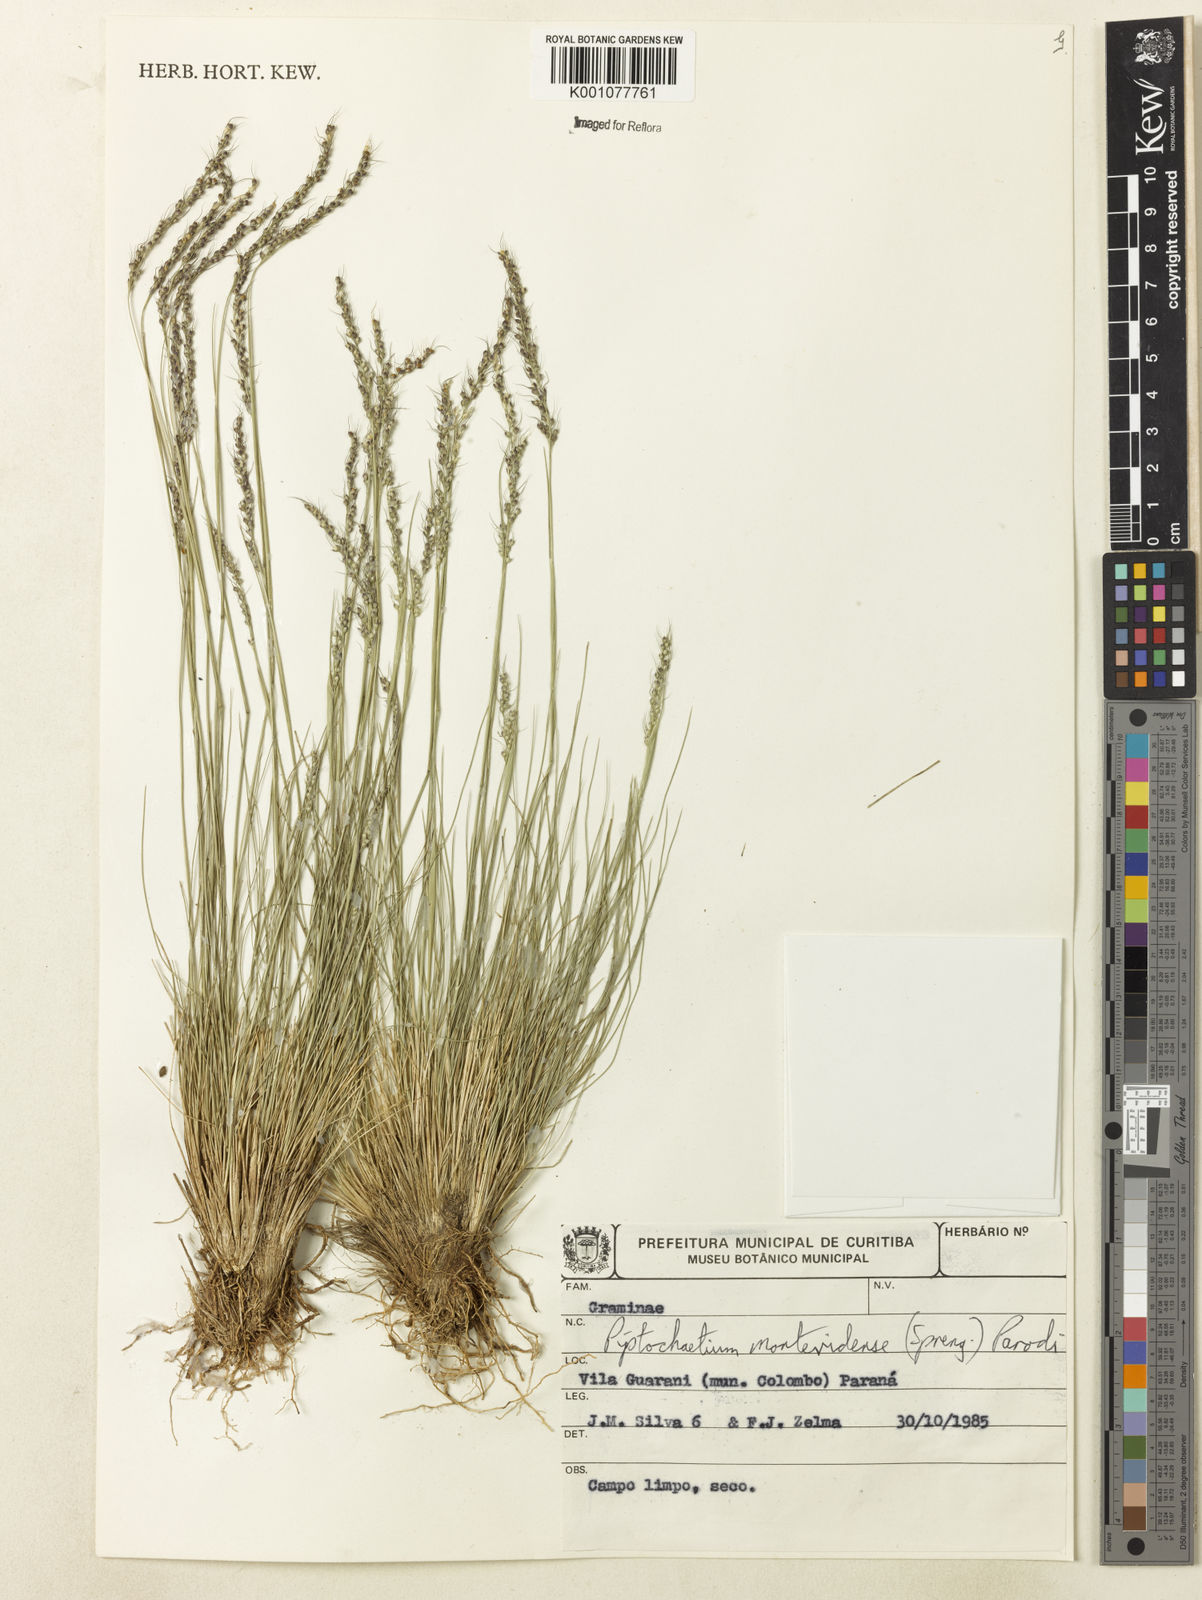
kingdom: Plantae
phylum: Tracheophyta
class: Liliopsida
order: Poales
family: Poaceae
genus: Piptochaetium
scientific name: Piptochaetium montevidense
